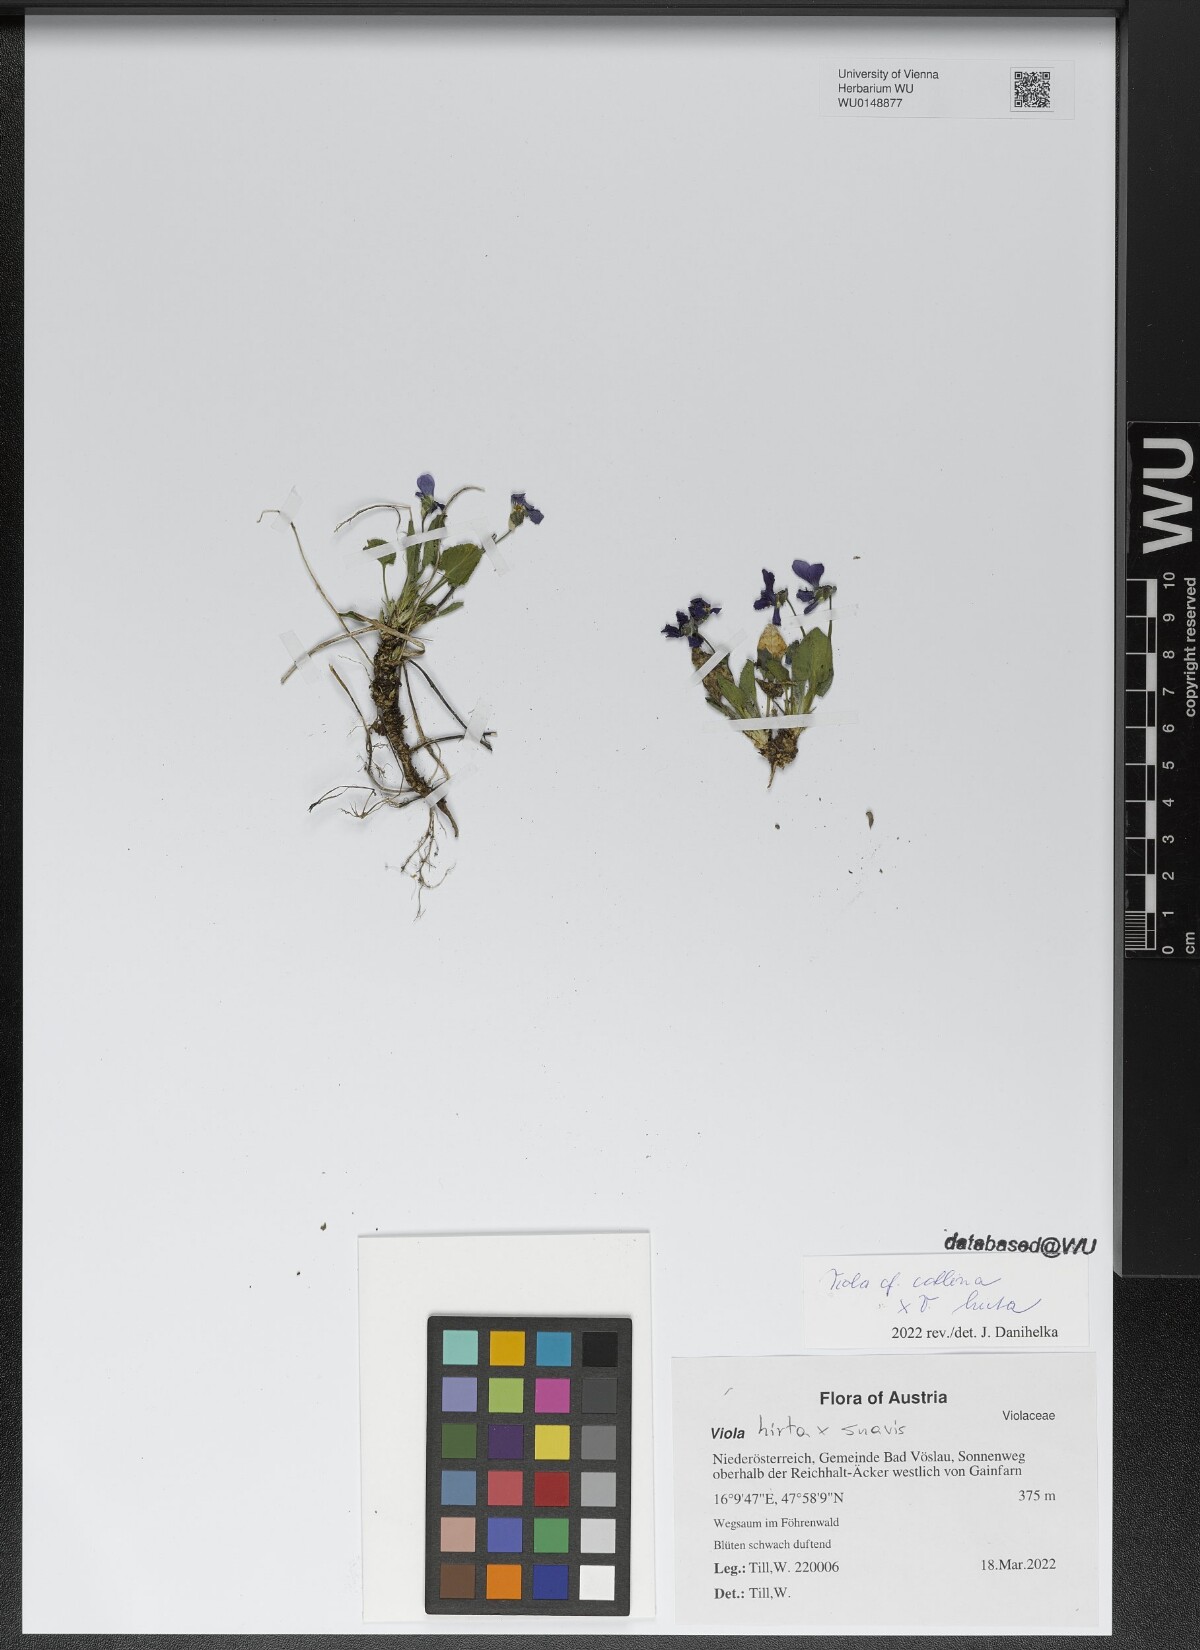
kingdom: Plantae
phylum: Tracheophyta
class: Magnoliopsida
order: Malpighiales
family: Violaceae
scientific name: Violaceae
